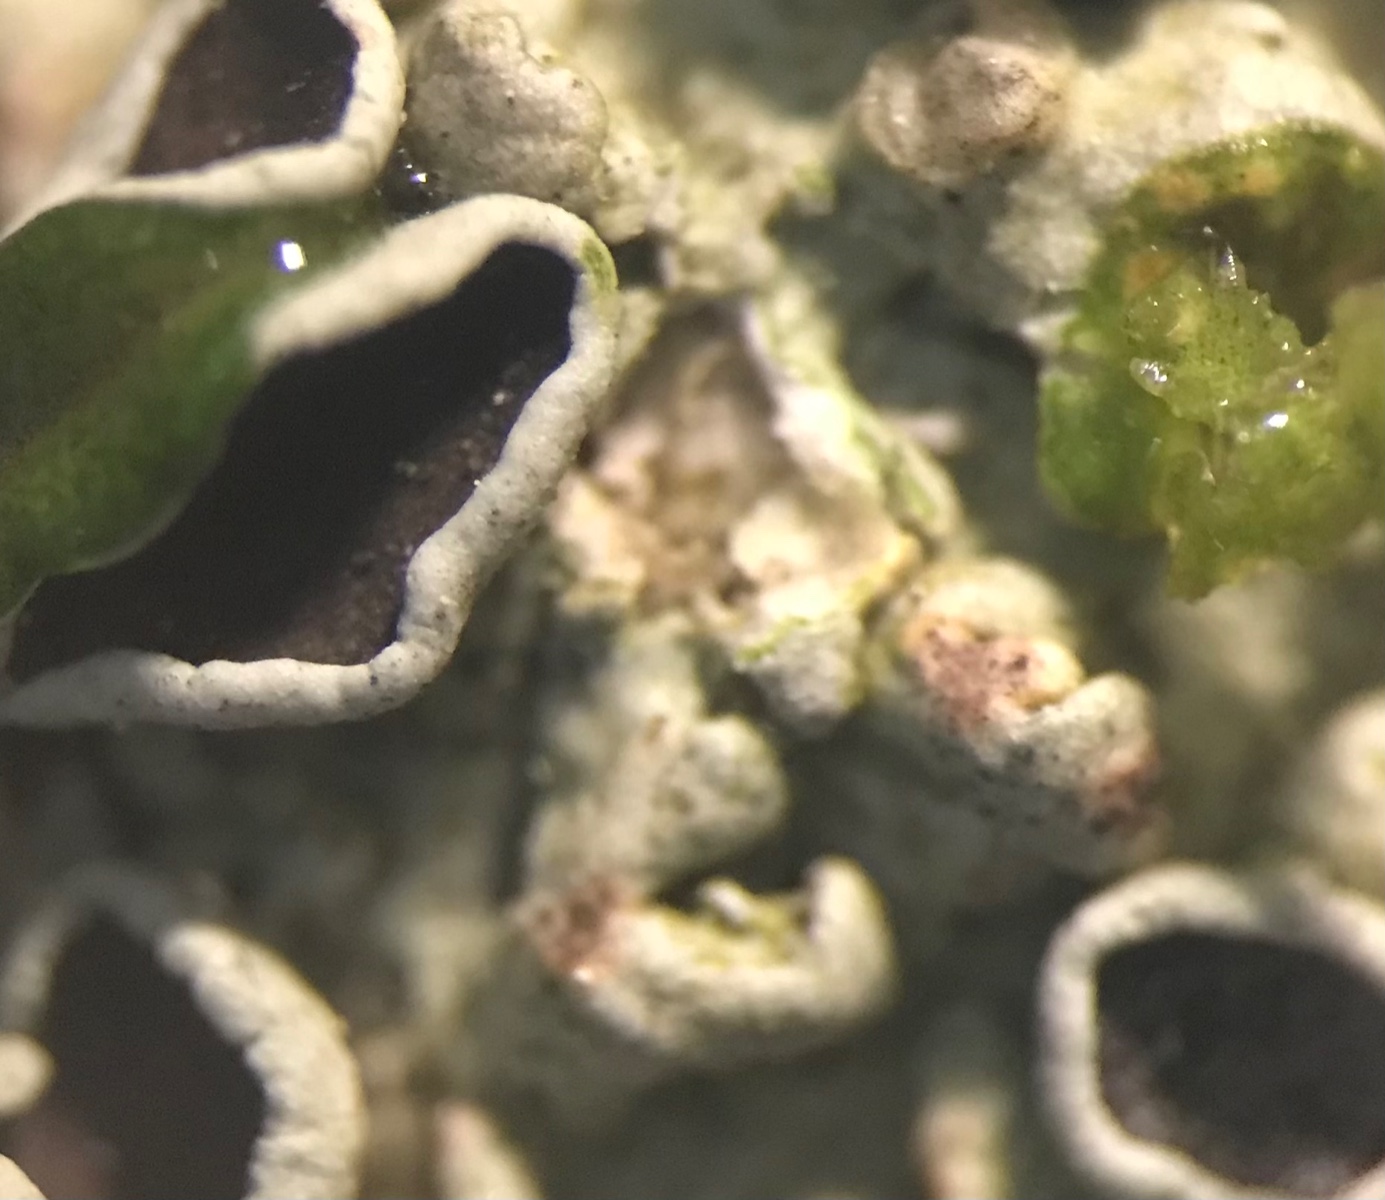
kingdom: Fungi
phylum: Ascomycota
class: Lecanoromycetes
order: Caliciales
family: Physciaceae
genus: Physcia
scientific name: Physcia stellaris
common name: stjerneformet rosetlav
